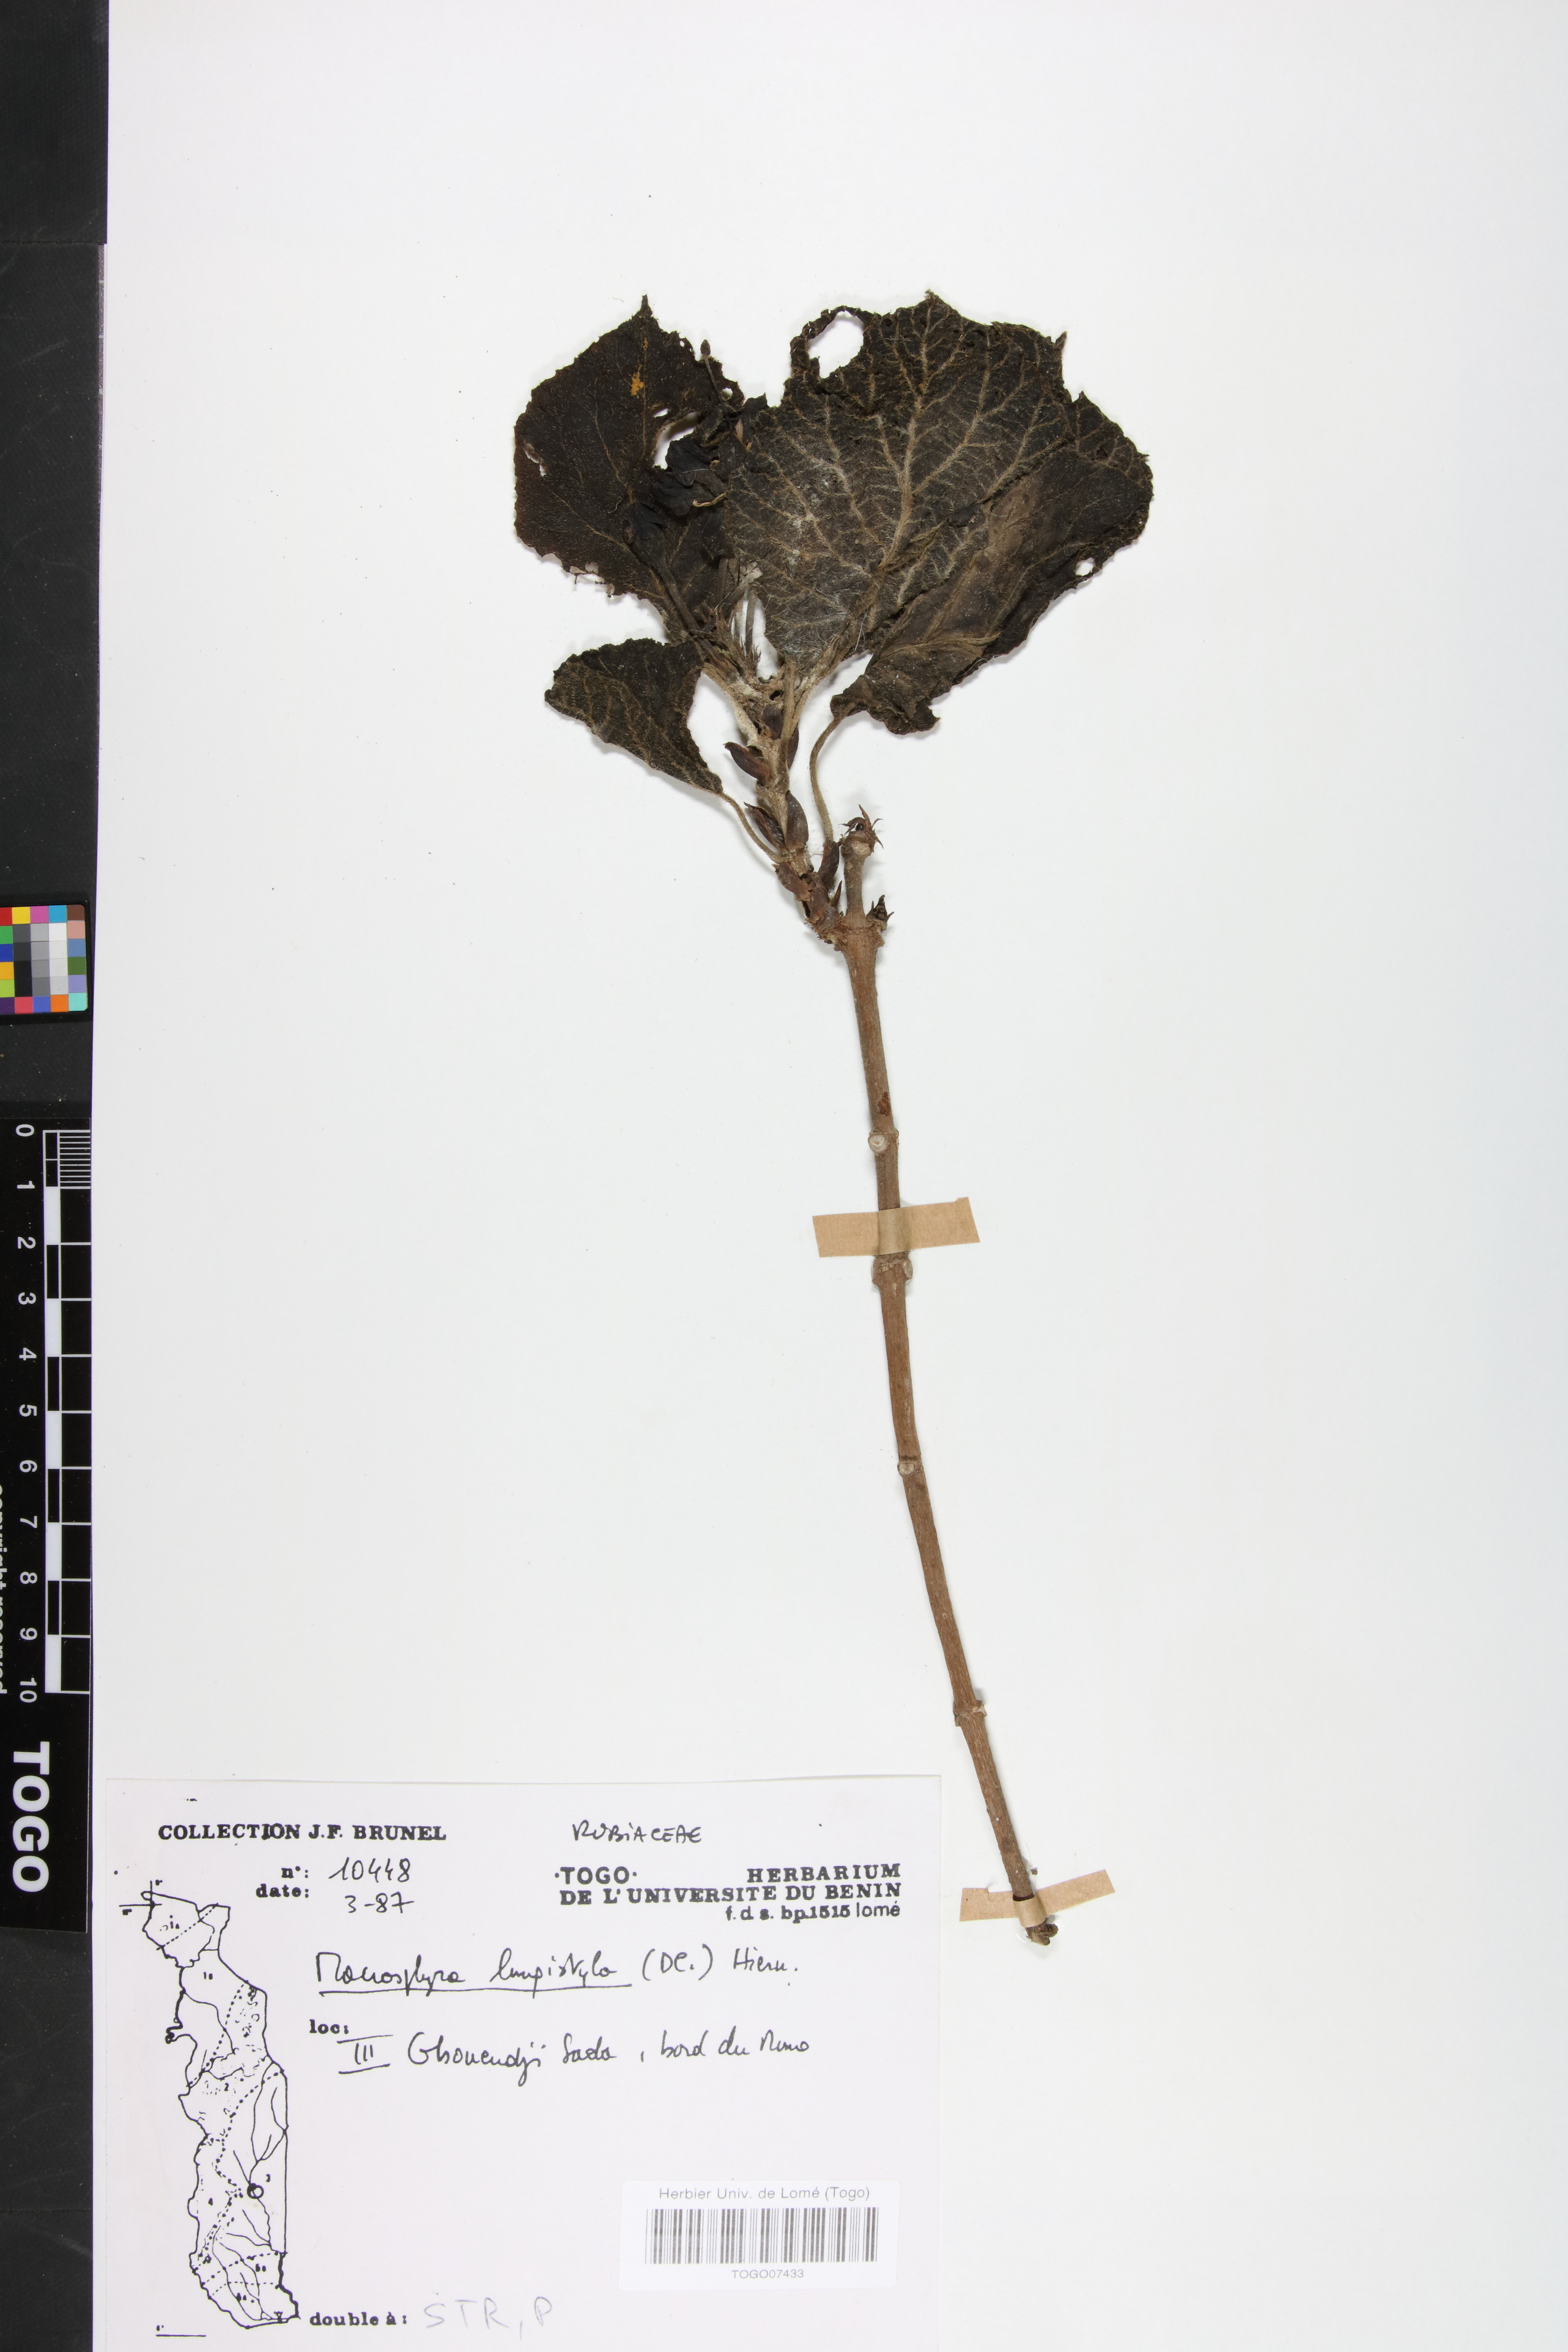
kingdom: Plantae
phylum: Tracheophyta
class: Magnoliopsida
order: Gentianales
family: Rubiaceae
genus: Macrosphyra
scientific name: Macrosphyra longistyla
